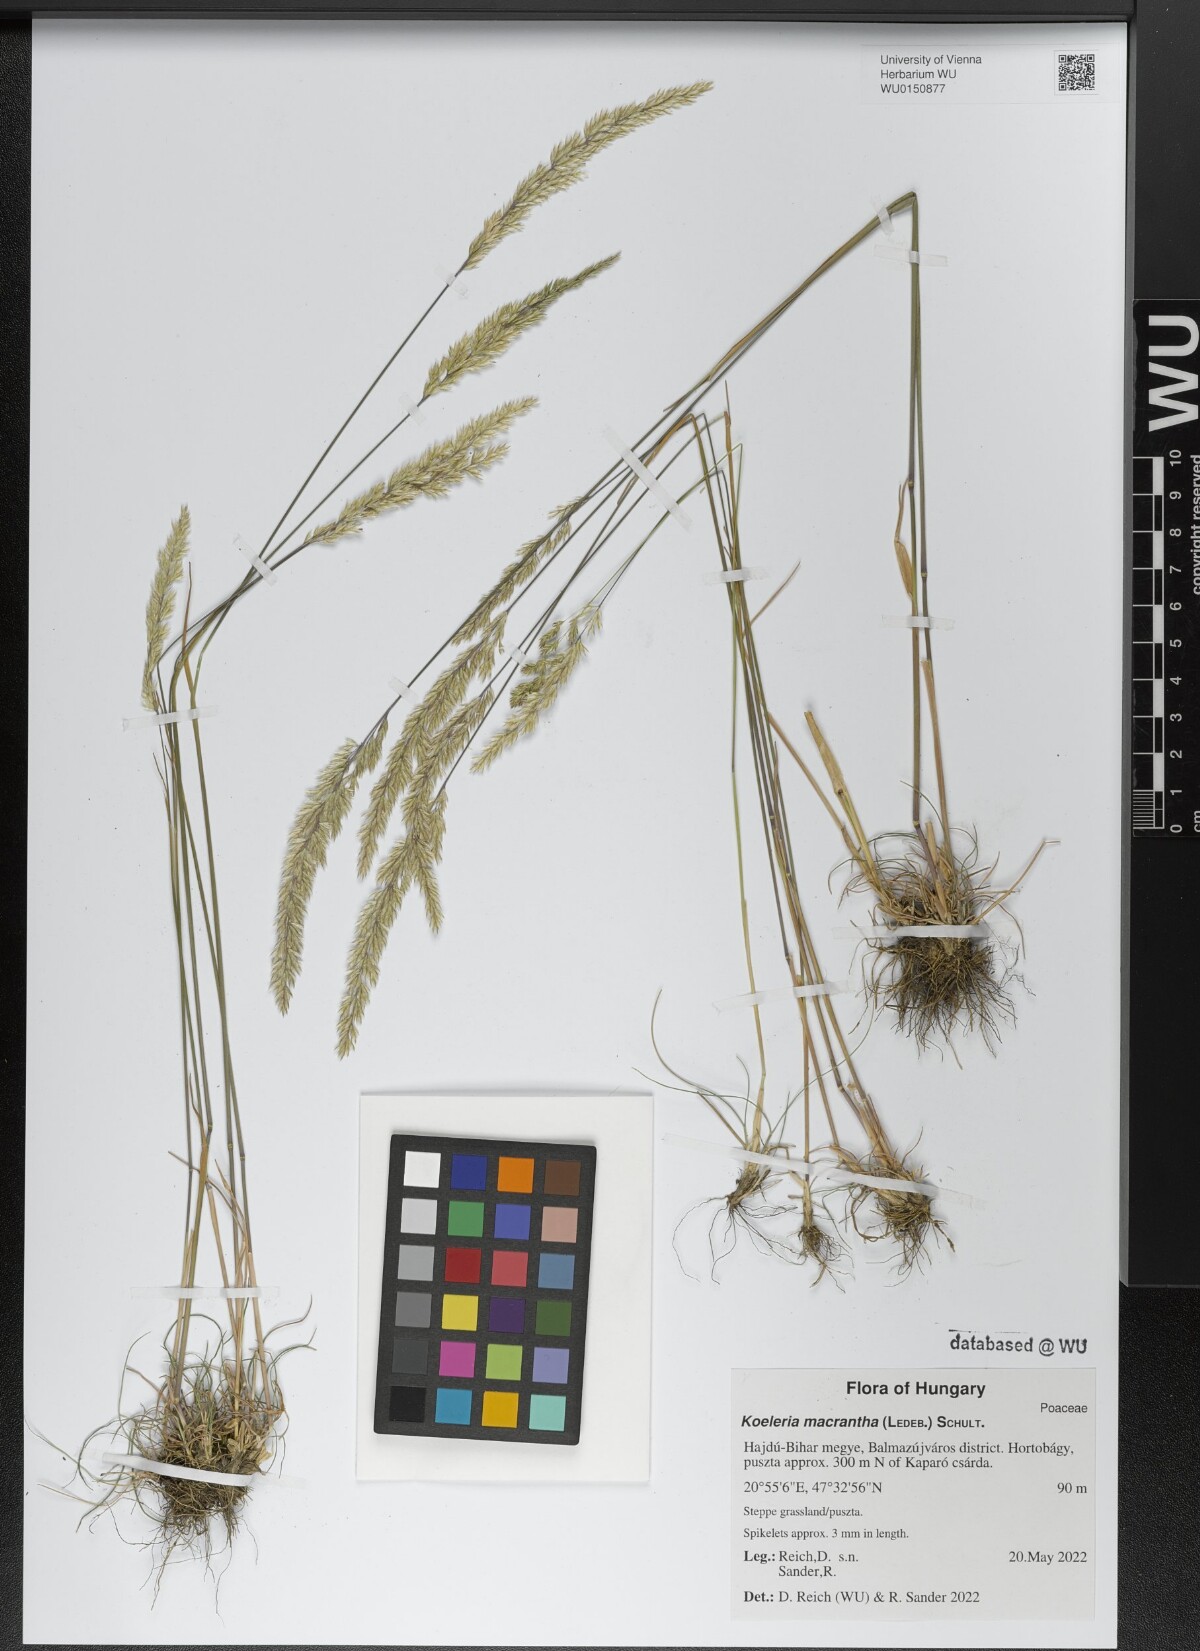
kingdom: Plantae
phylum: Tracheophyta
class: Liliopsida
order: Poales
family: Poaceae
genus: Koeleria
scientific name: Koeleria macrantha
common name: Crested hair-grass
